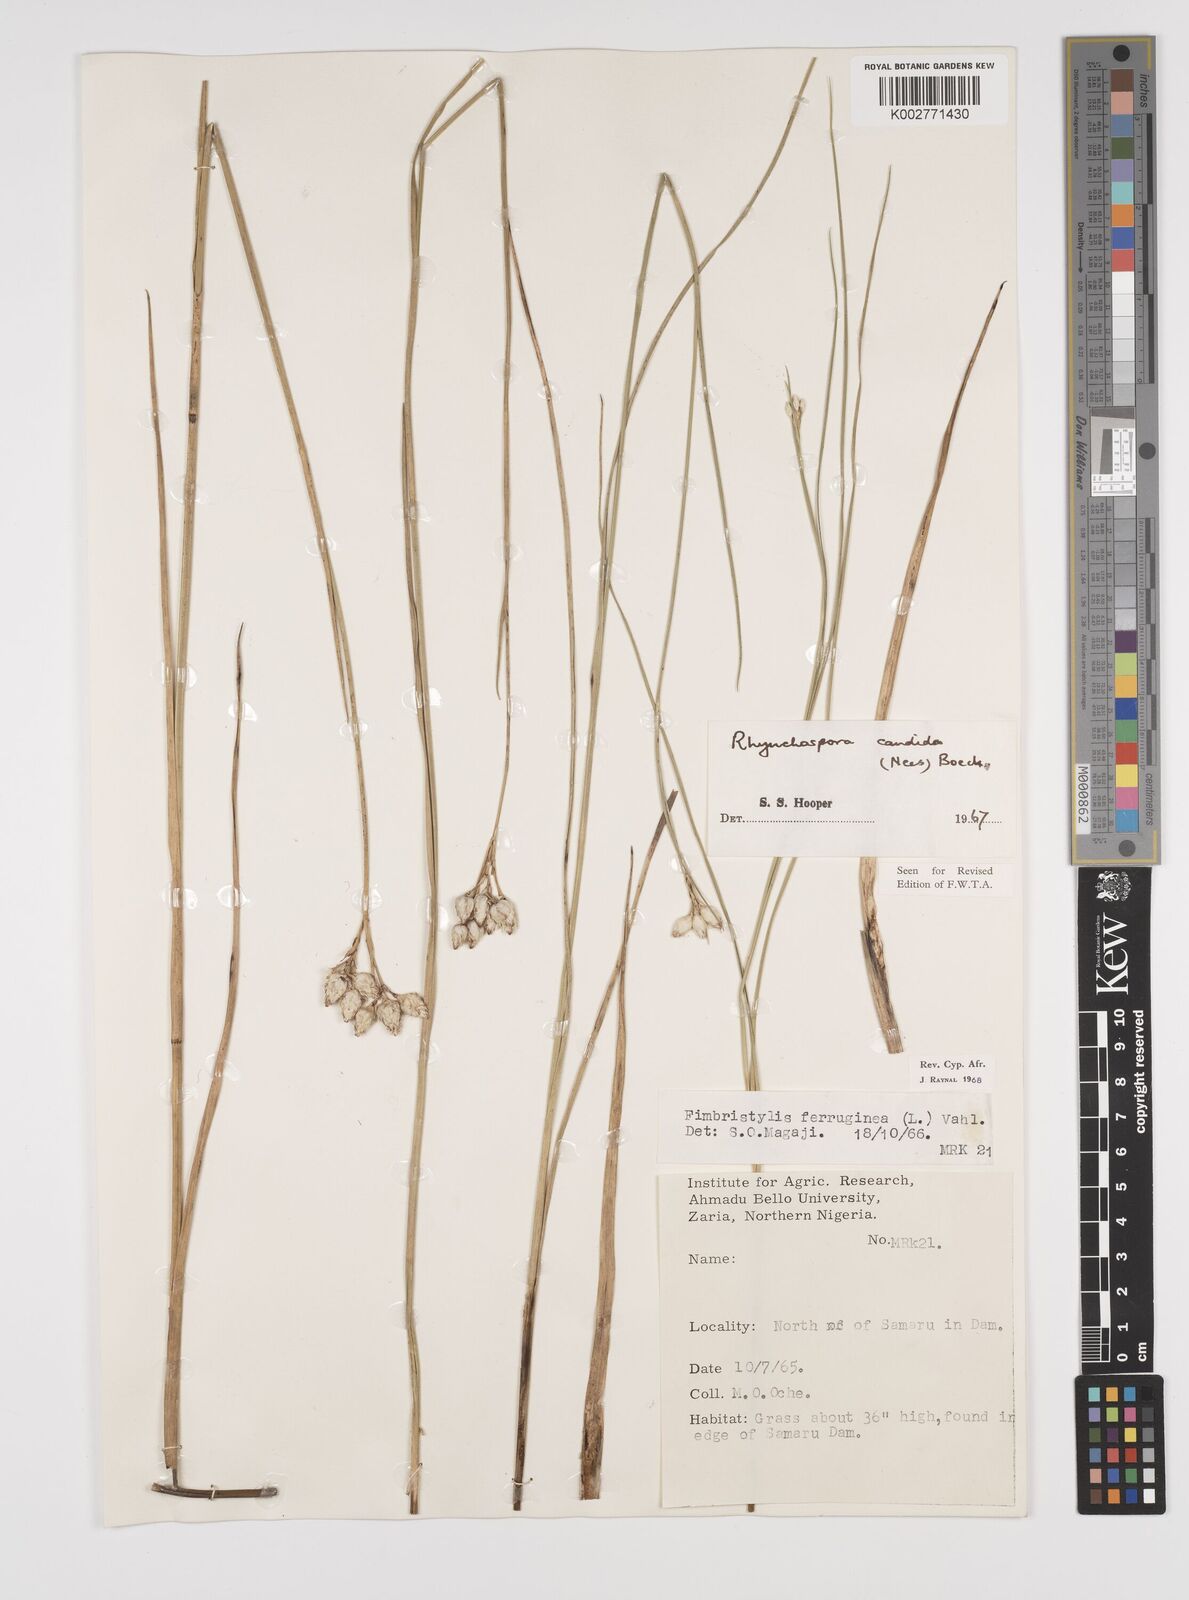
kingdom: Plantae
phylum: Tracheophyta
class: Liliopsida
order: Poales
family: Cyperaceae
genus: Rhynchospora
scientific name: Rhynchospora candida
